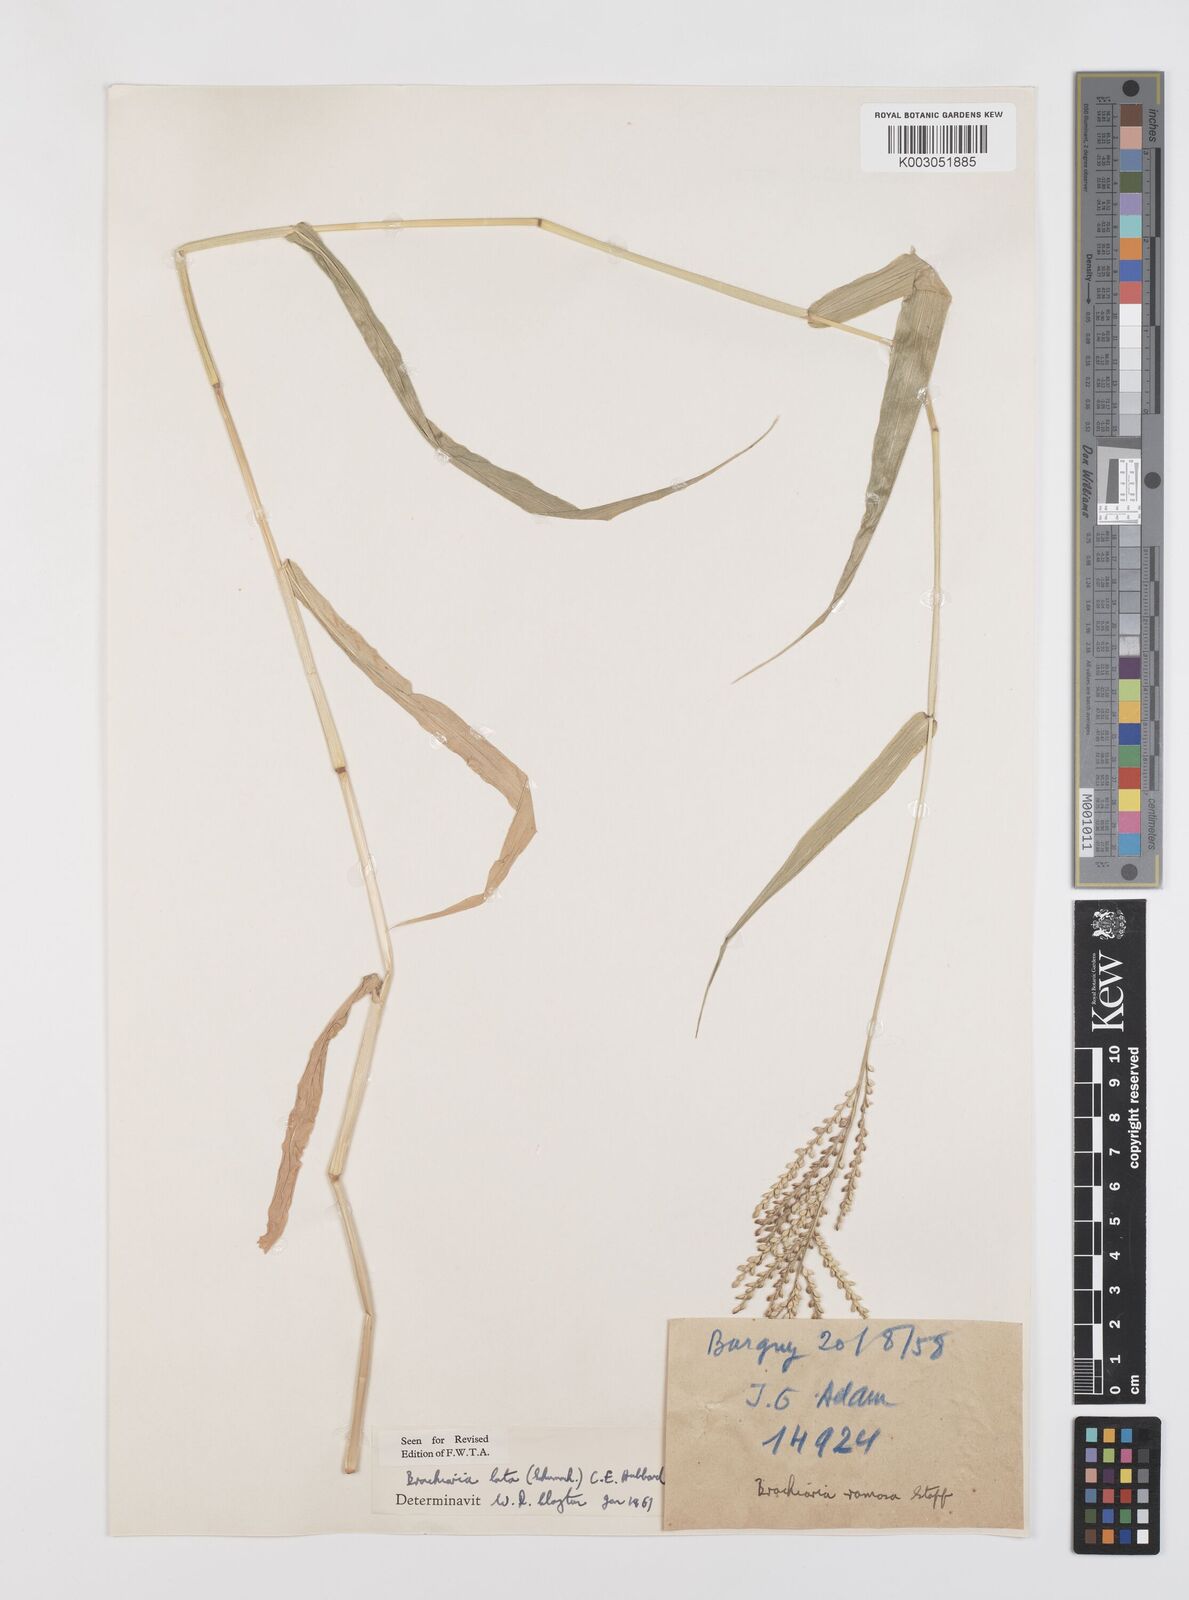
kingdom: Plantae
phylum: Tracheophyta
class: Liliopsida
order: Poales
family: Poaceae
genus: Urochloa
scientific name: Urochloa lata
